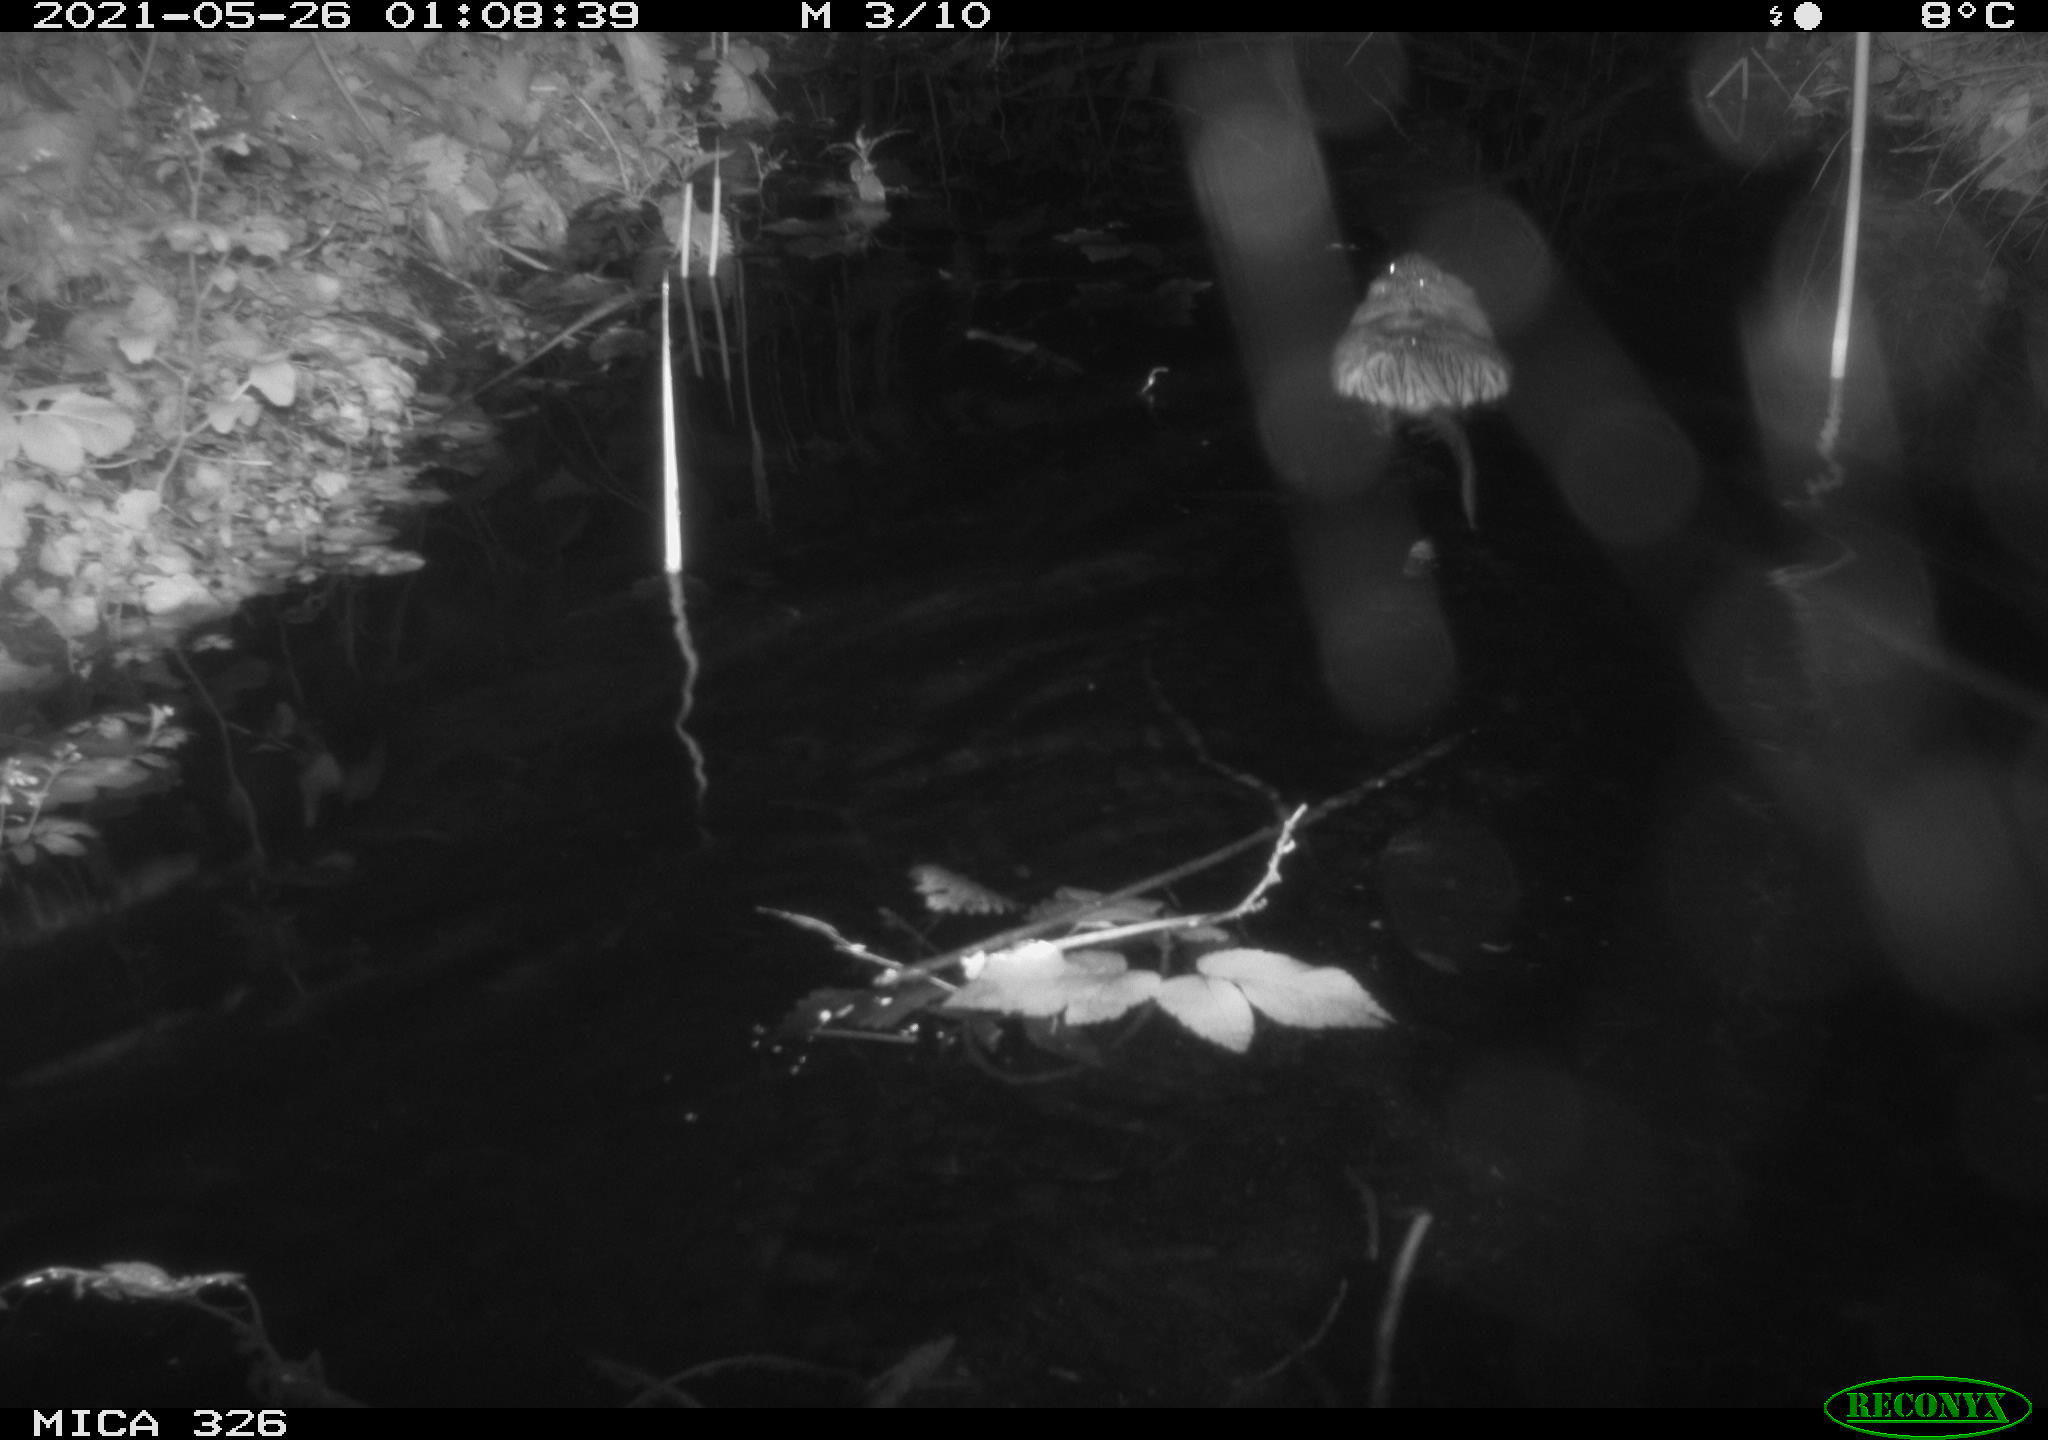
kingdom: Animalia
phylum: Chordata
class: Mammalia
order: Rodentia
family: Cricetidae
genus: Ondatra
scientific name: Ondatra zibethicus
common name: Muskrat
